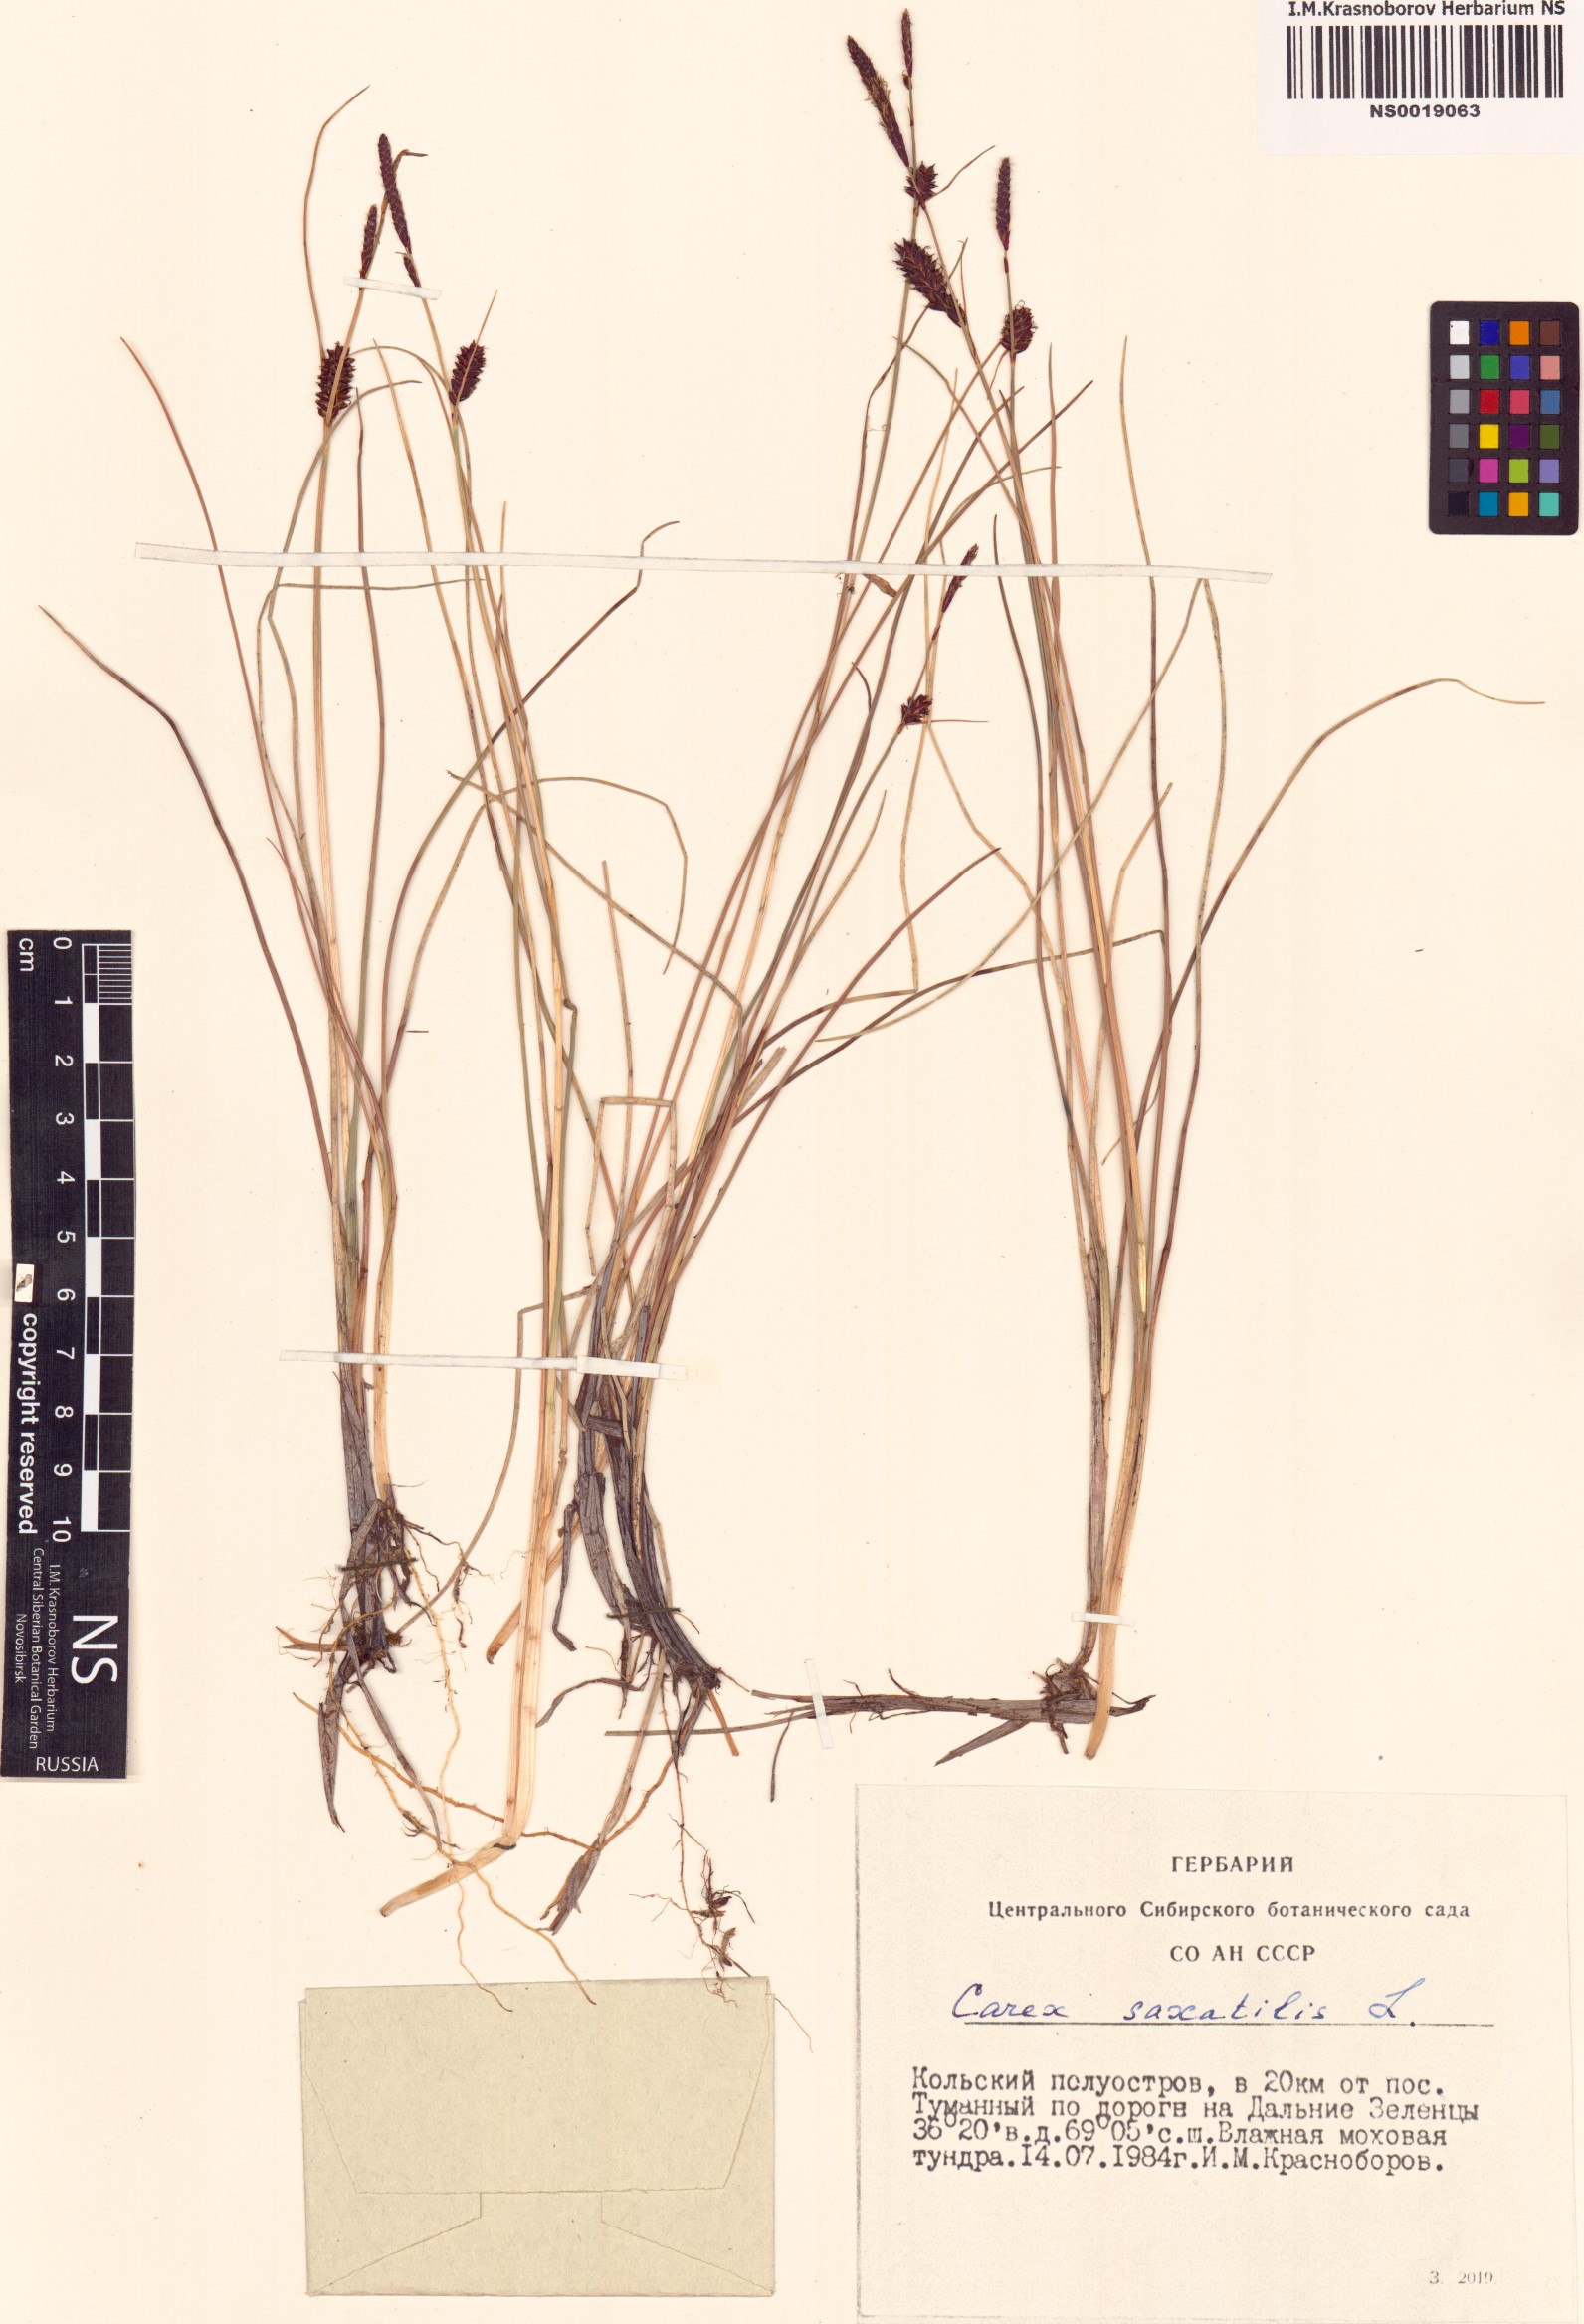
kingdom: Plantae
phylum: Tracheophyta
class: Liliopsida
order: Poales
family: Cyperaceae
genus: Carex
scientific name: Carex saxatilis
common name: Russet sedge
